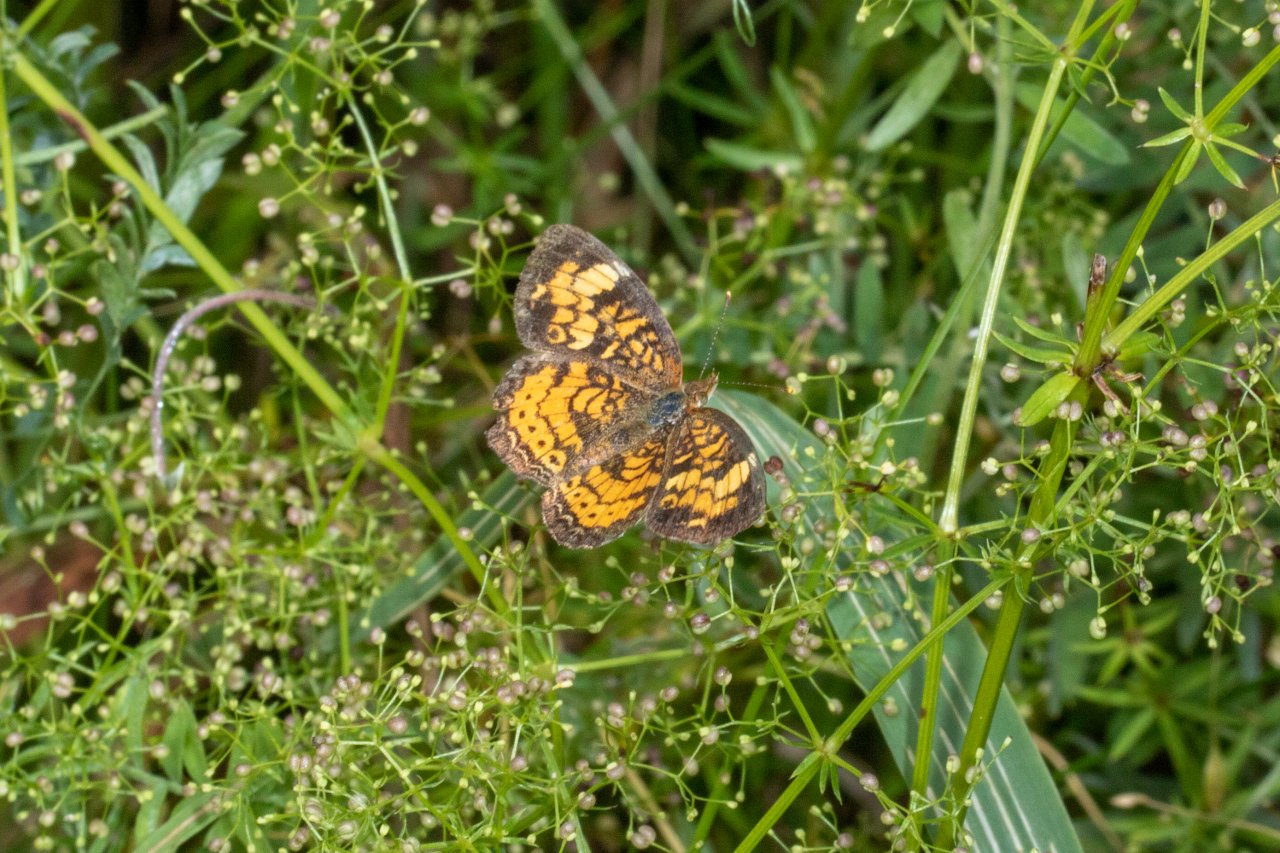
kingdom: Animalia
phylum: Arthropoda
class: Insecta
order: Lepidoptera
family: Nymphalidae
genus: Phyciodes
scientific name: Phyciodes
